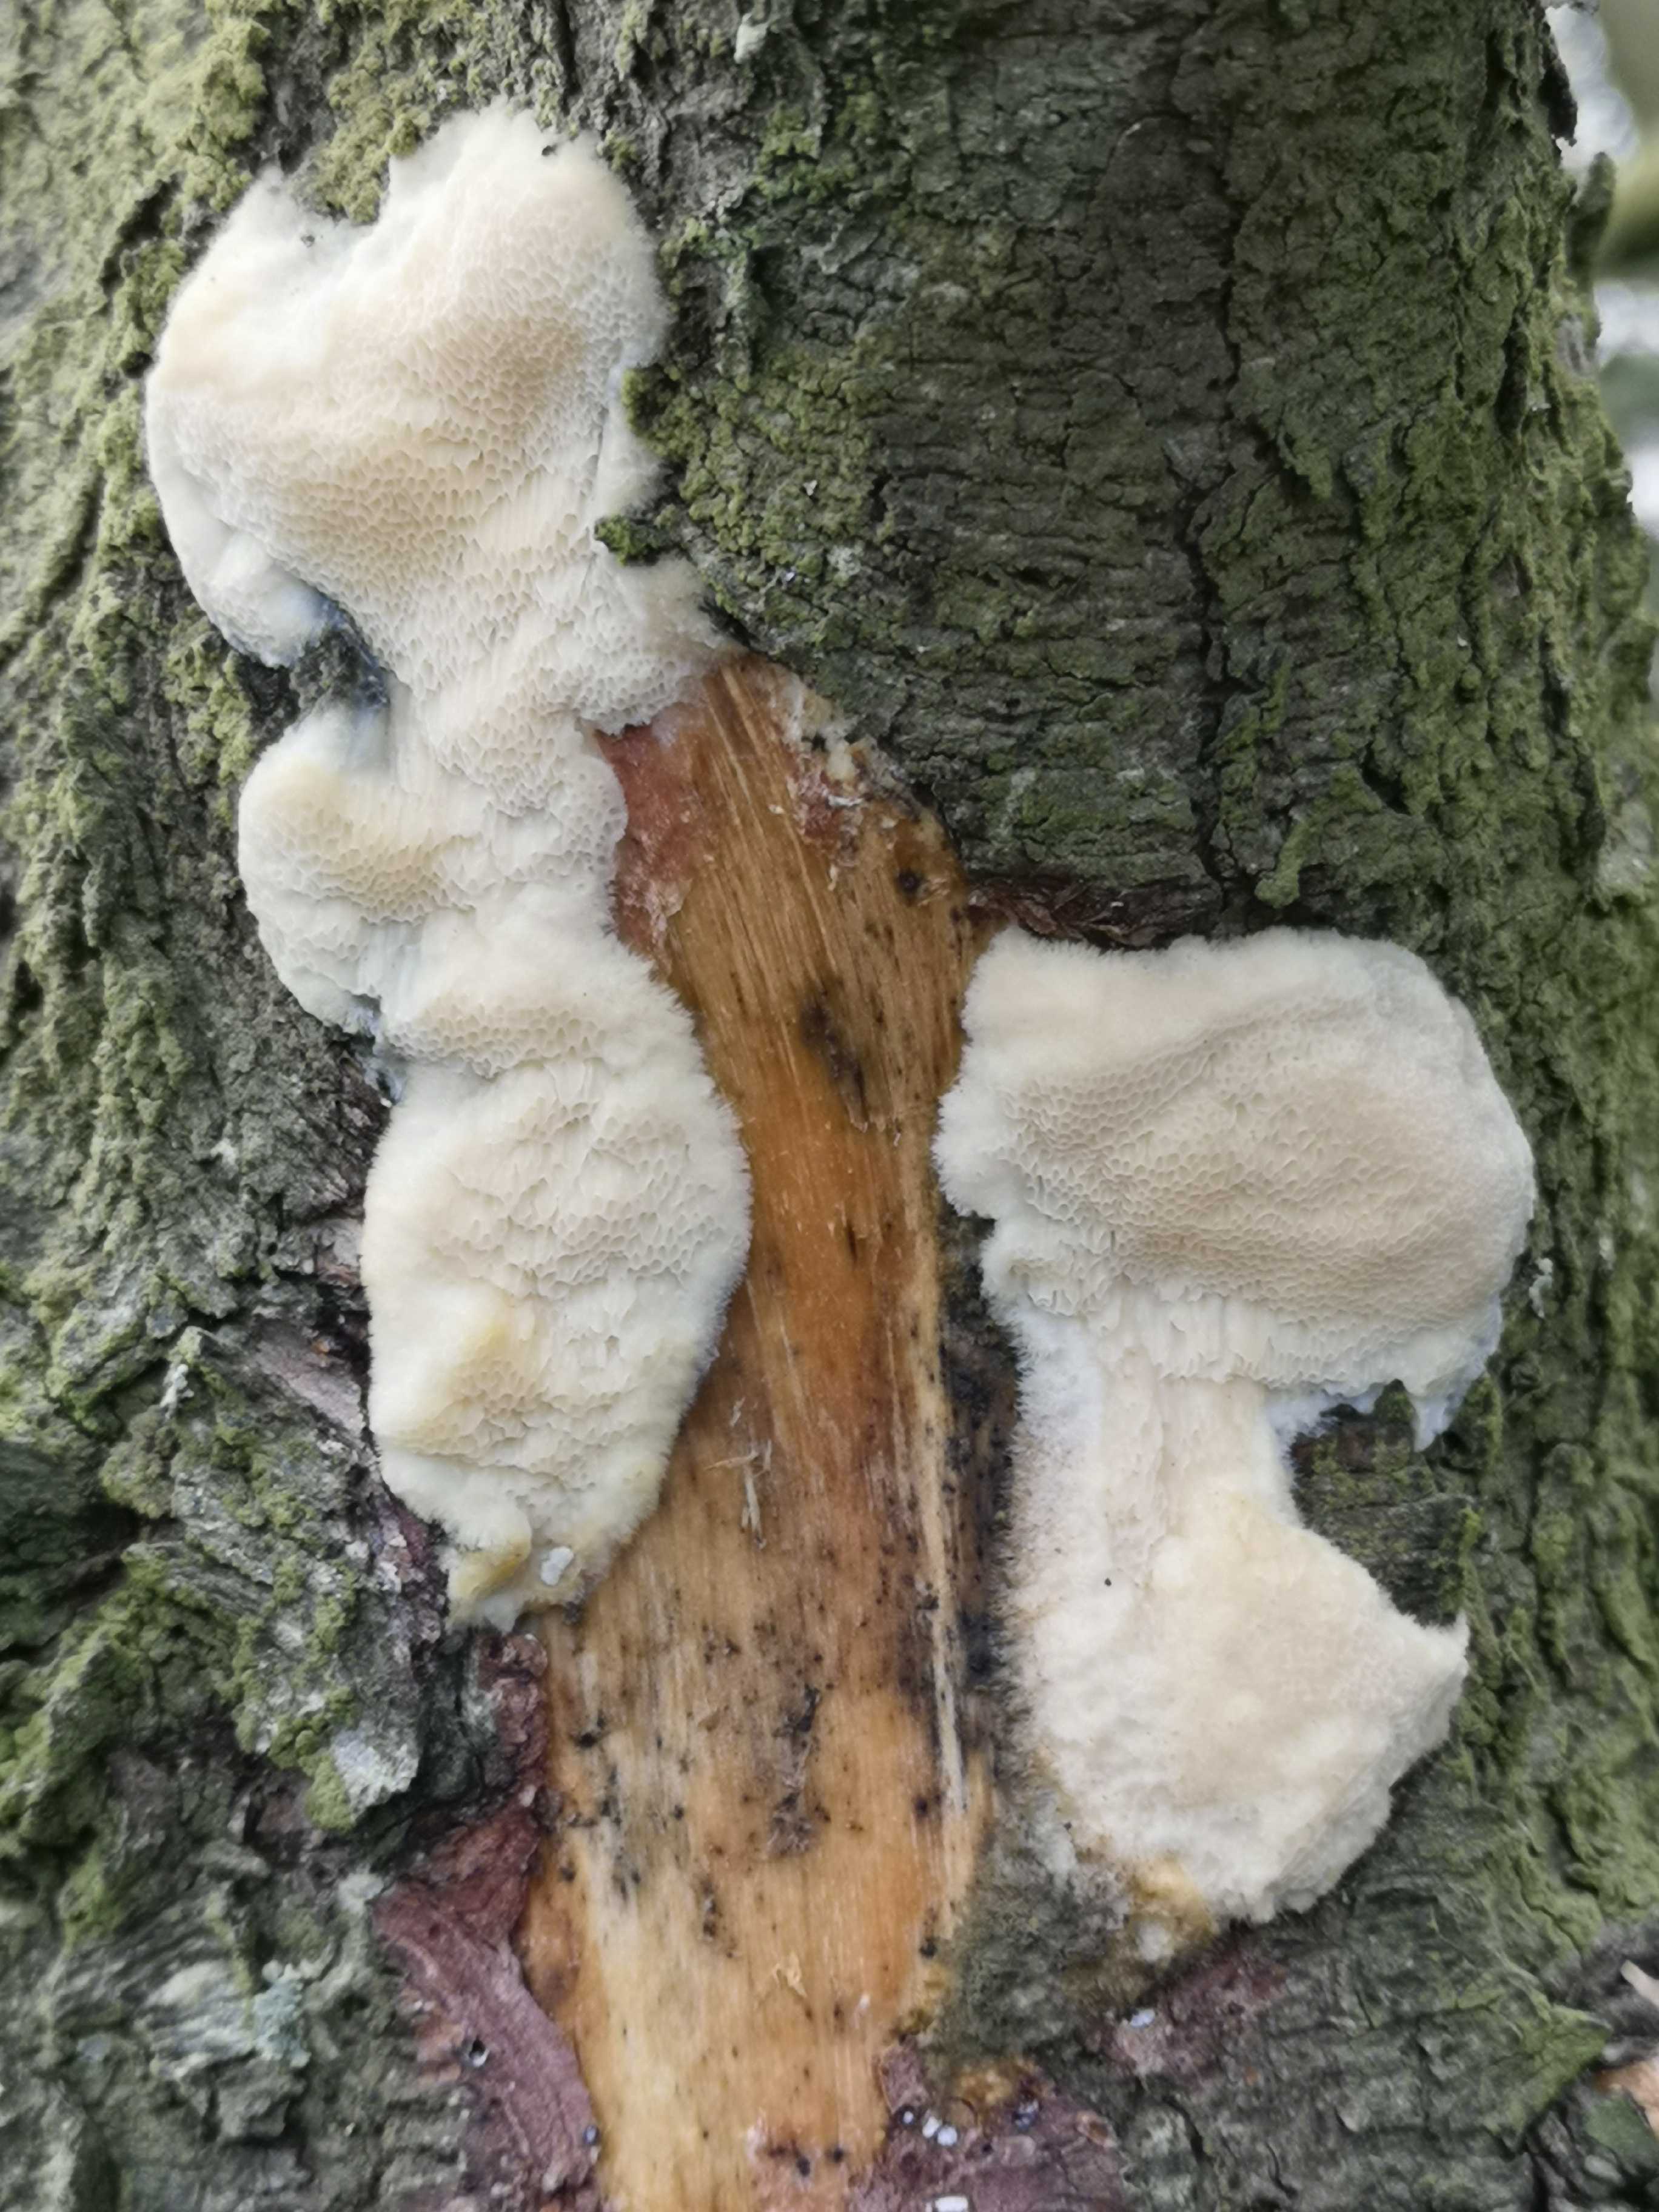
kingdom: Fungi
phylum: Basidiomycota
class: Agaricomycetes
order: Polyporales
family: Polyporaceae
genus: Diplomitoporus
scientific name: Diplomitoporus flavescens
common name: fyrre-elastikporesvamp
